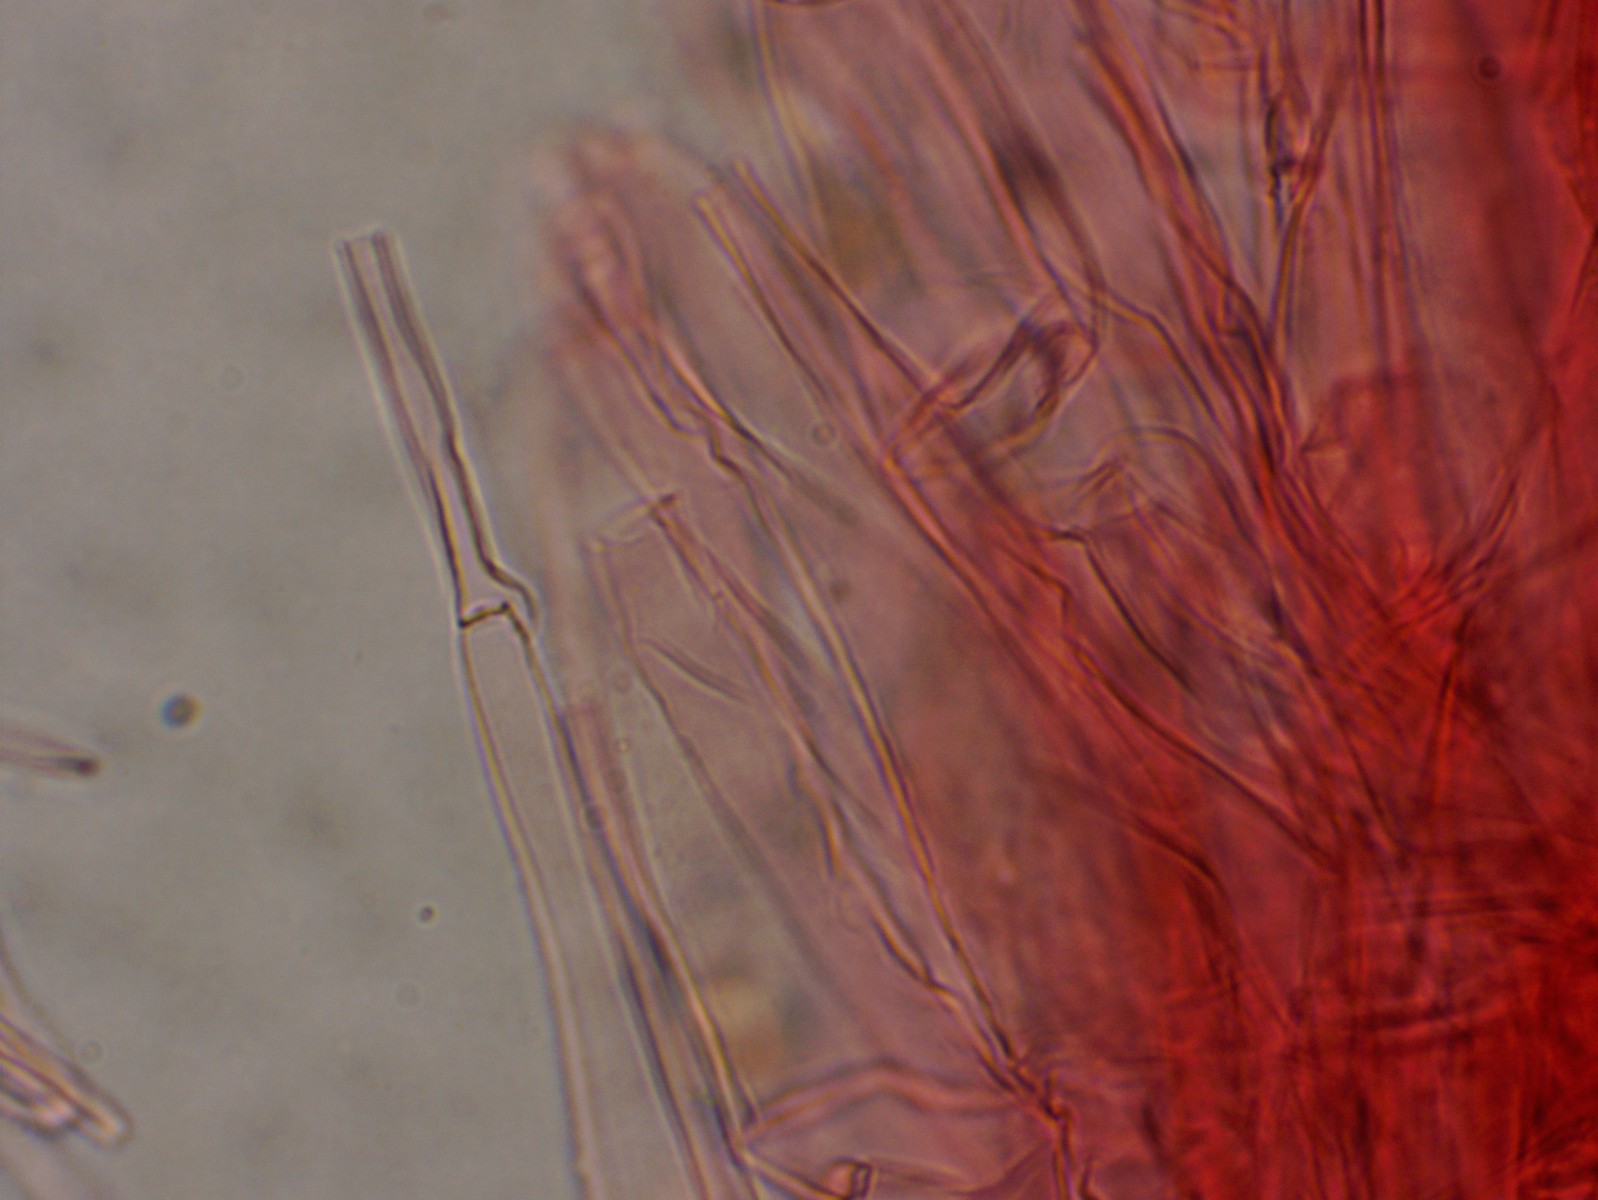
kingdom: Fungi
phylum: Basidiomycota
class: Agaricomycetes
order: Agaricales
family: Entolomataceae
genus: Entoloma
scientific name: Entoloma sordidulum
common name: smudsig rødblad
